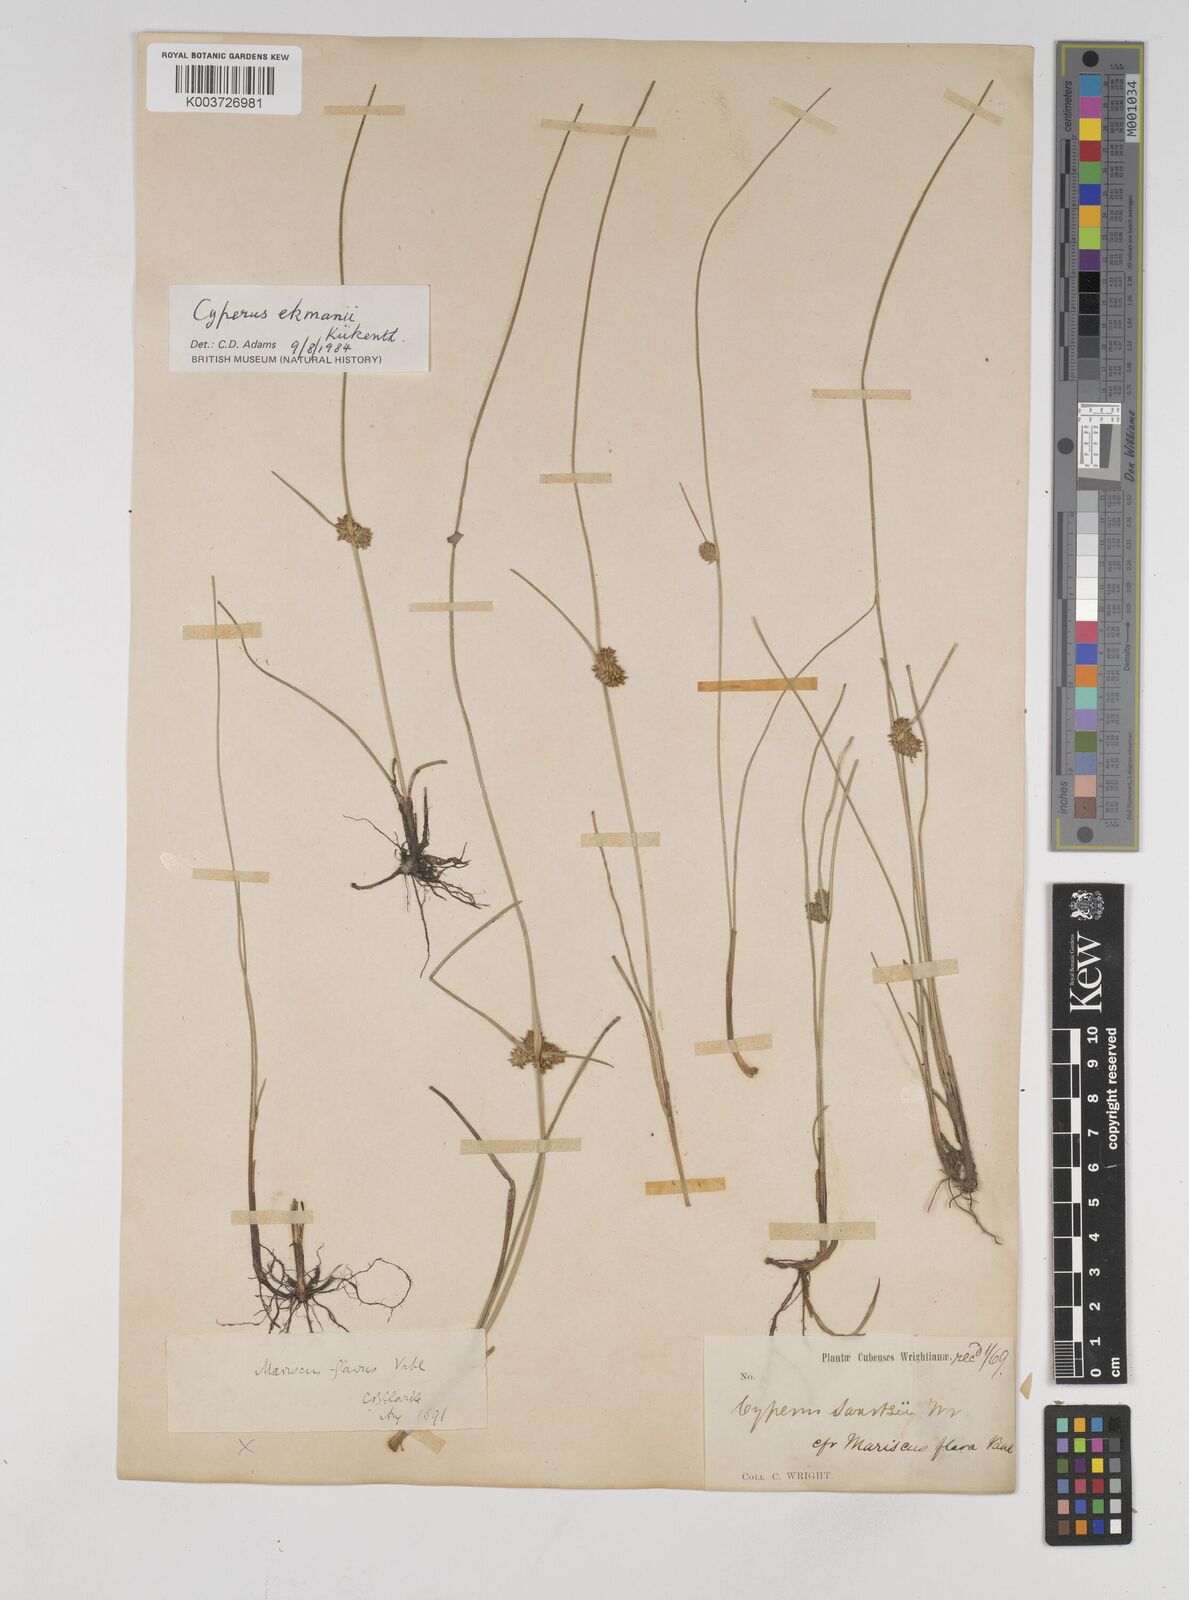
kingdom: Plantae
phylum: Tracheophyta
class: Liliopsida
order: Poales
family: Cyperaceae
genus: Cyperus
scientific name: Cyperus ekmanii
